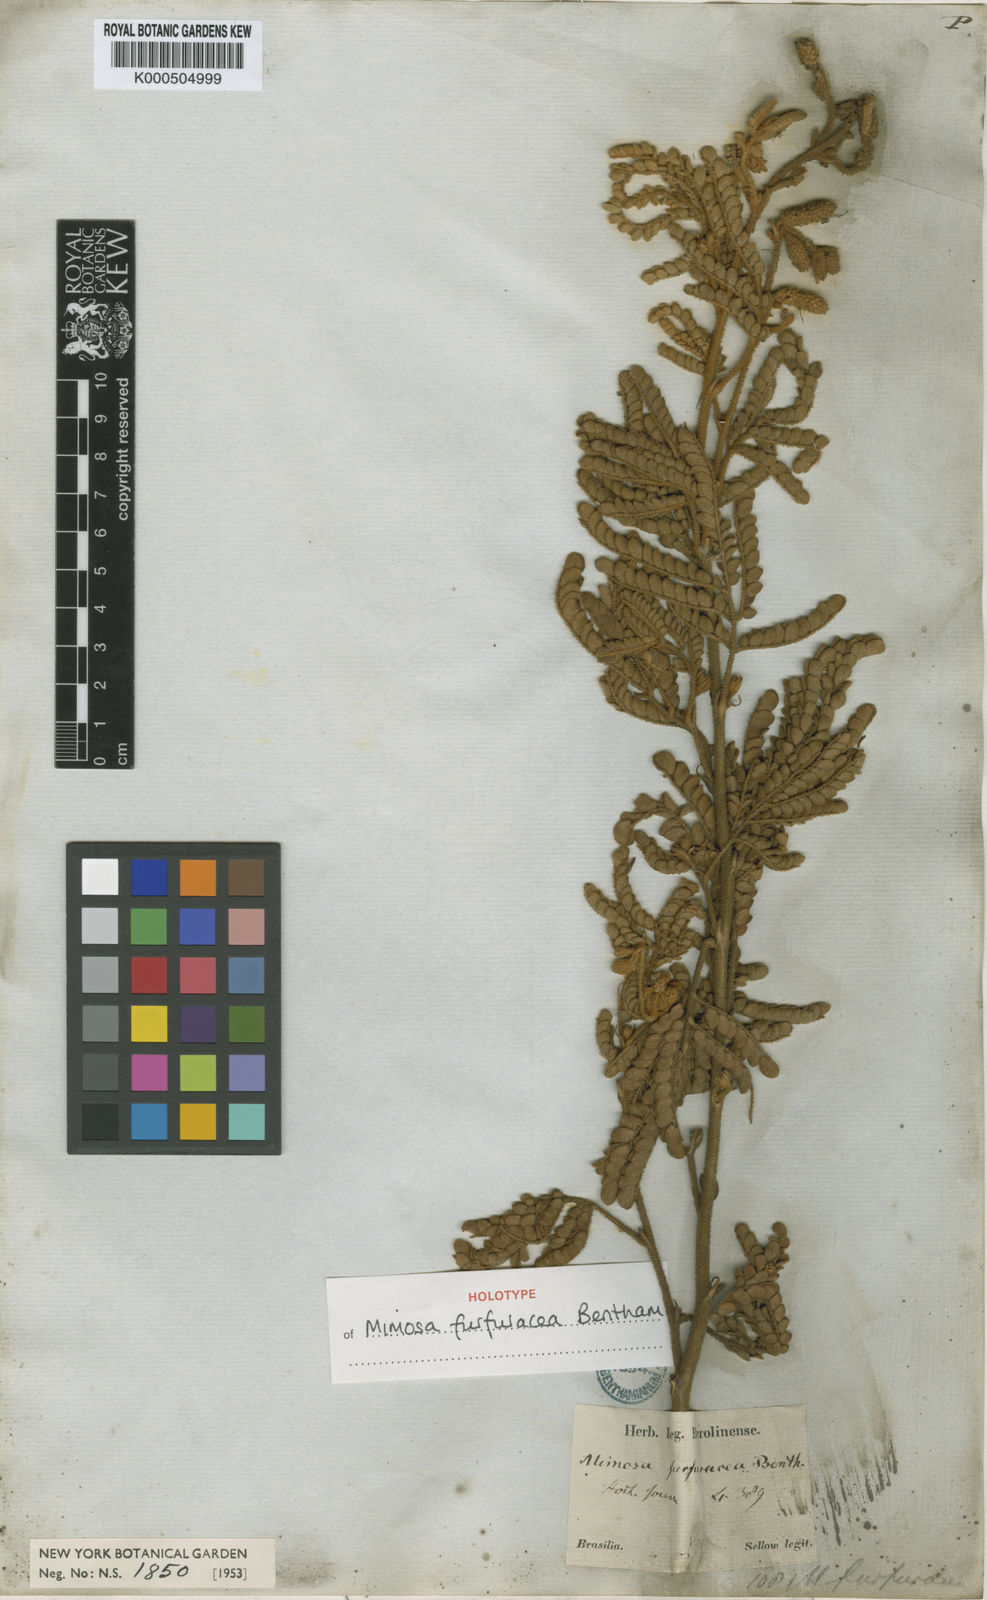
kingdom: Plantae
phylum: Tracheophyta
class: Magnoliopsida
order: Fabales
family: Fabaceae
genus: Mimosa
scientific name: Mimosa furfuracea
